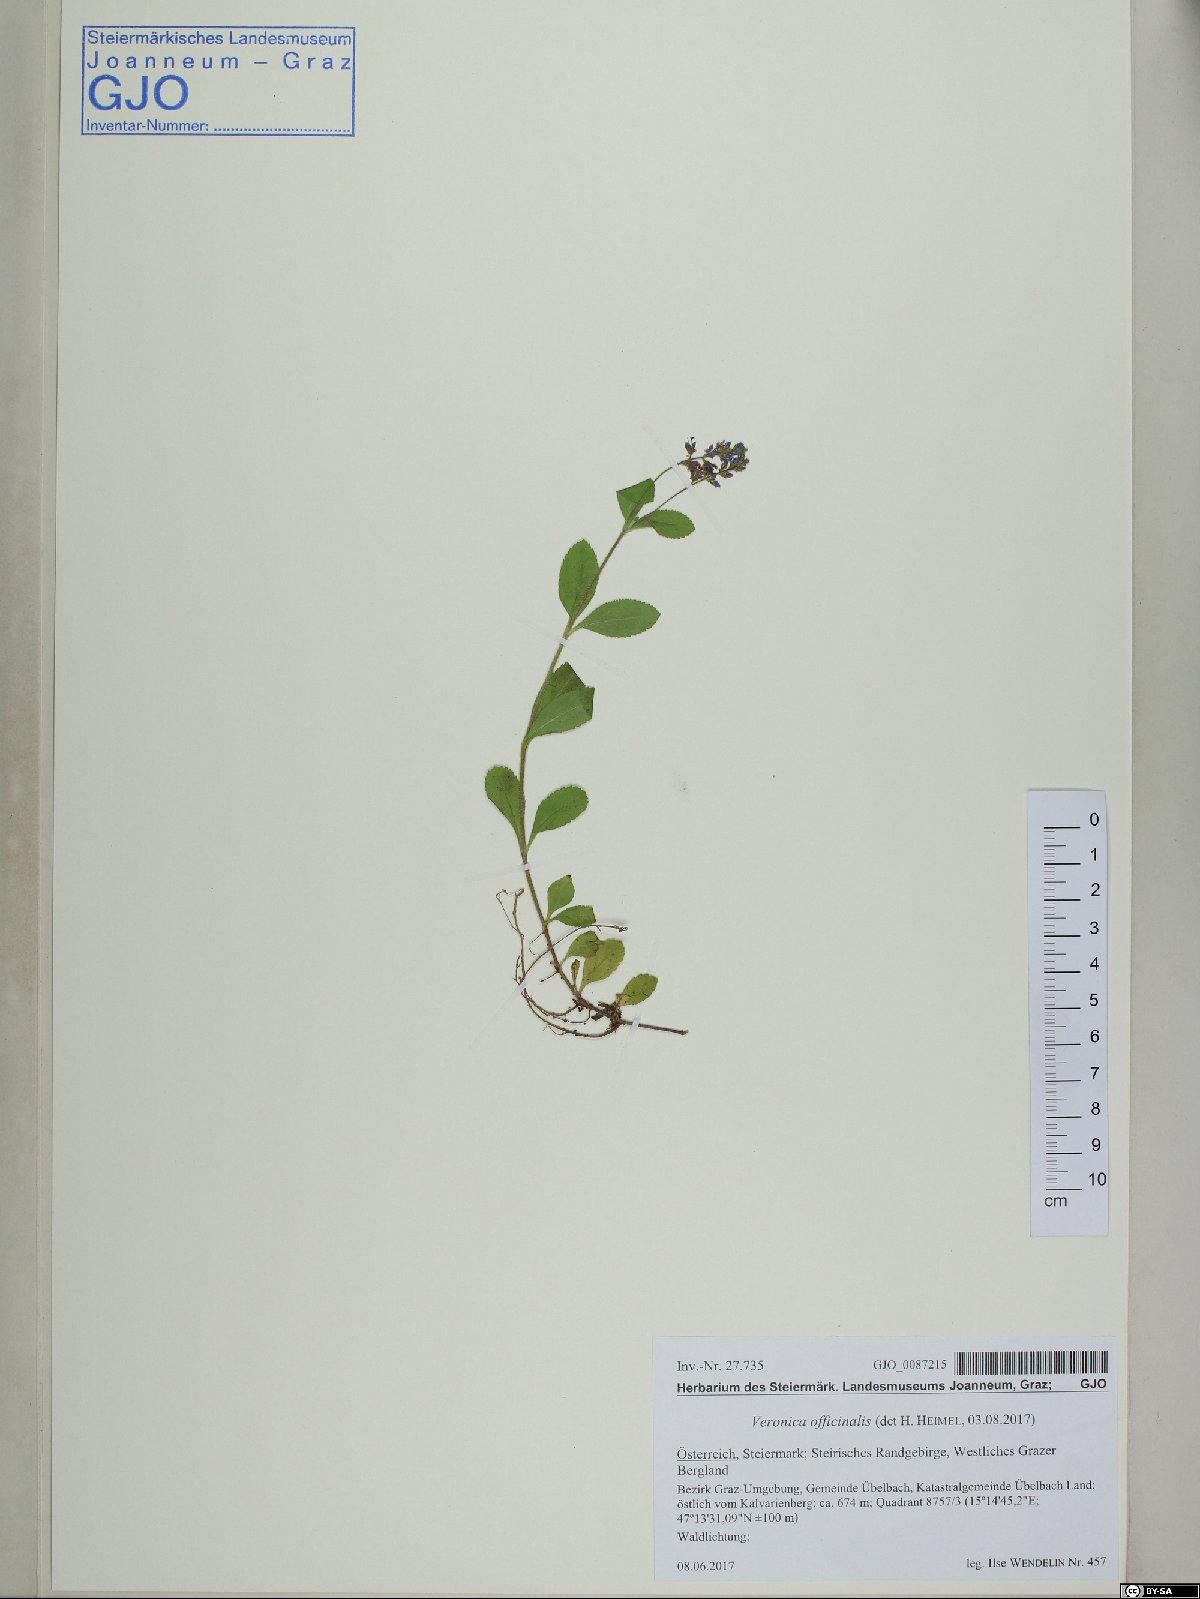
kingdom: Plantae
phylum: Tracheophyta
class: Magnoliopsida
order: Lamiales
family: Plantaginaceae
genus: Veronica
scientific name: Veronica officinalis
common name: Common speedwell
